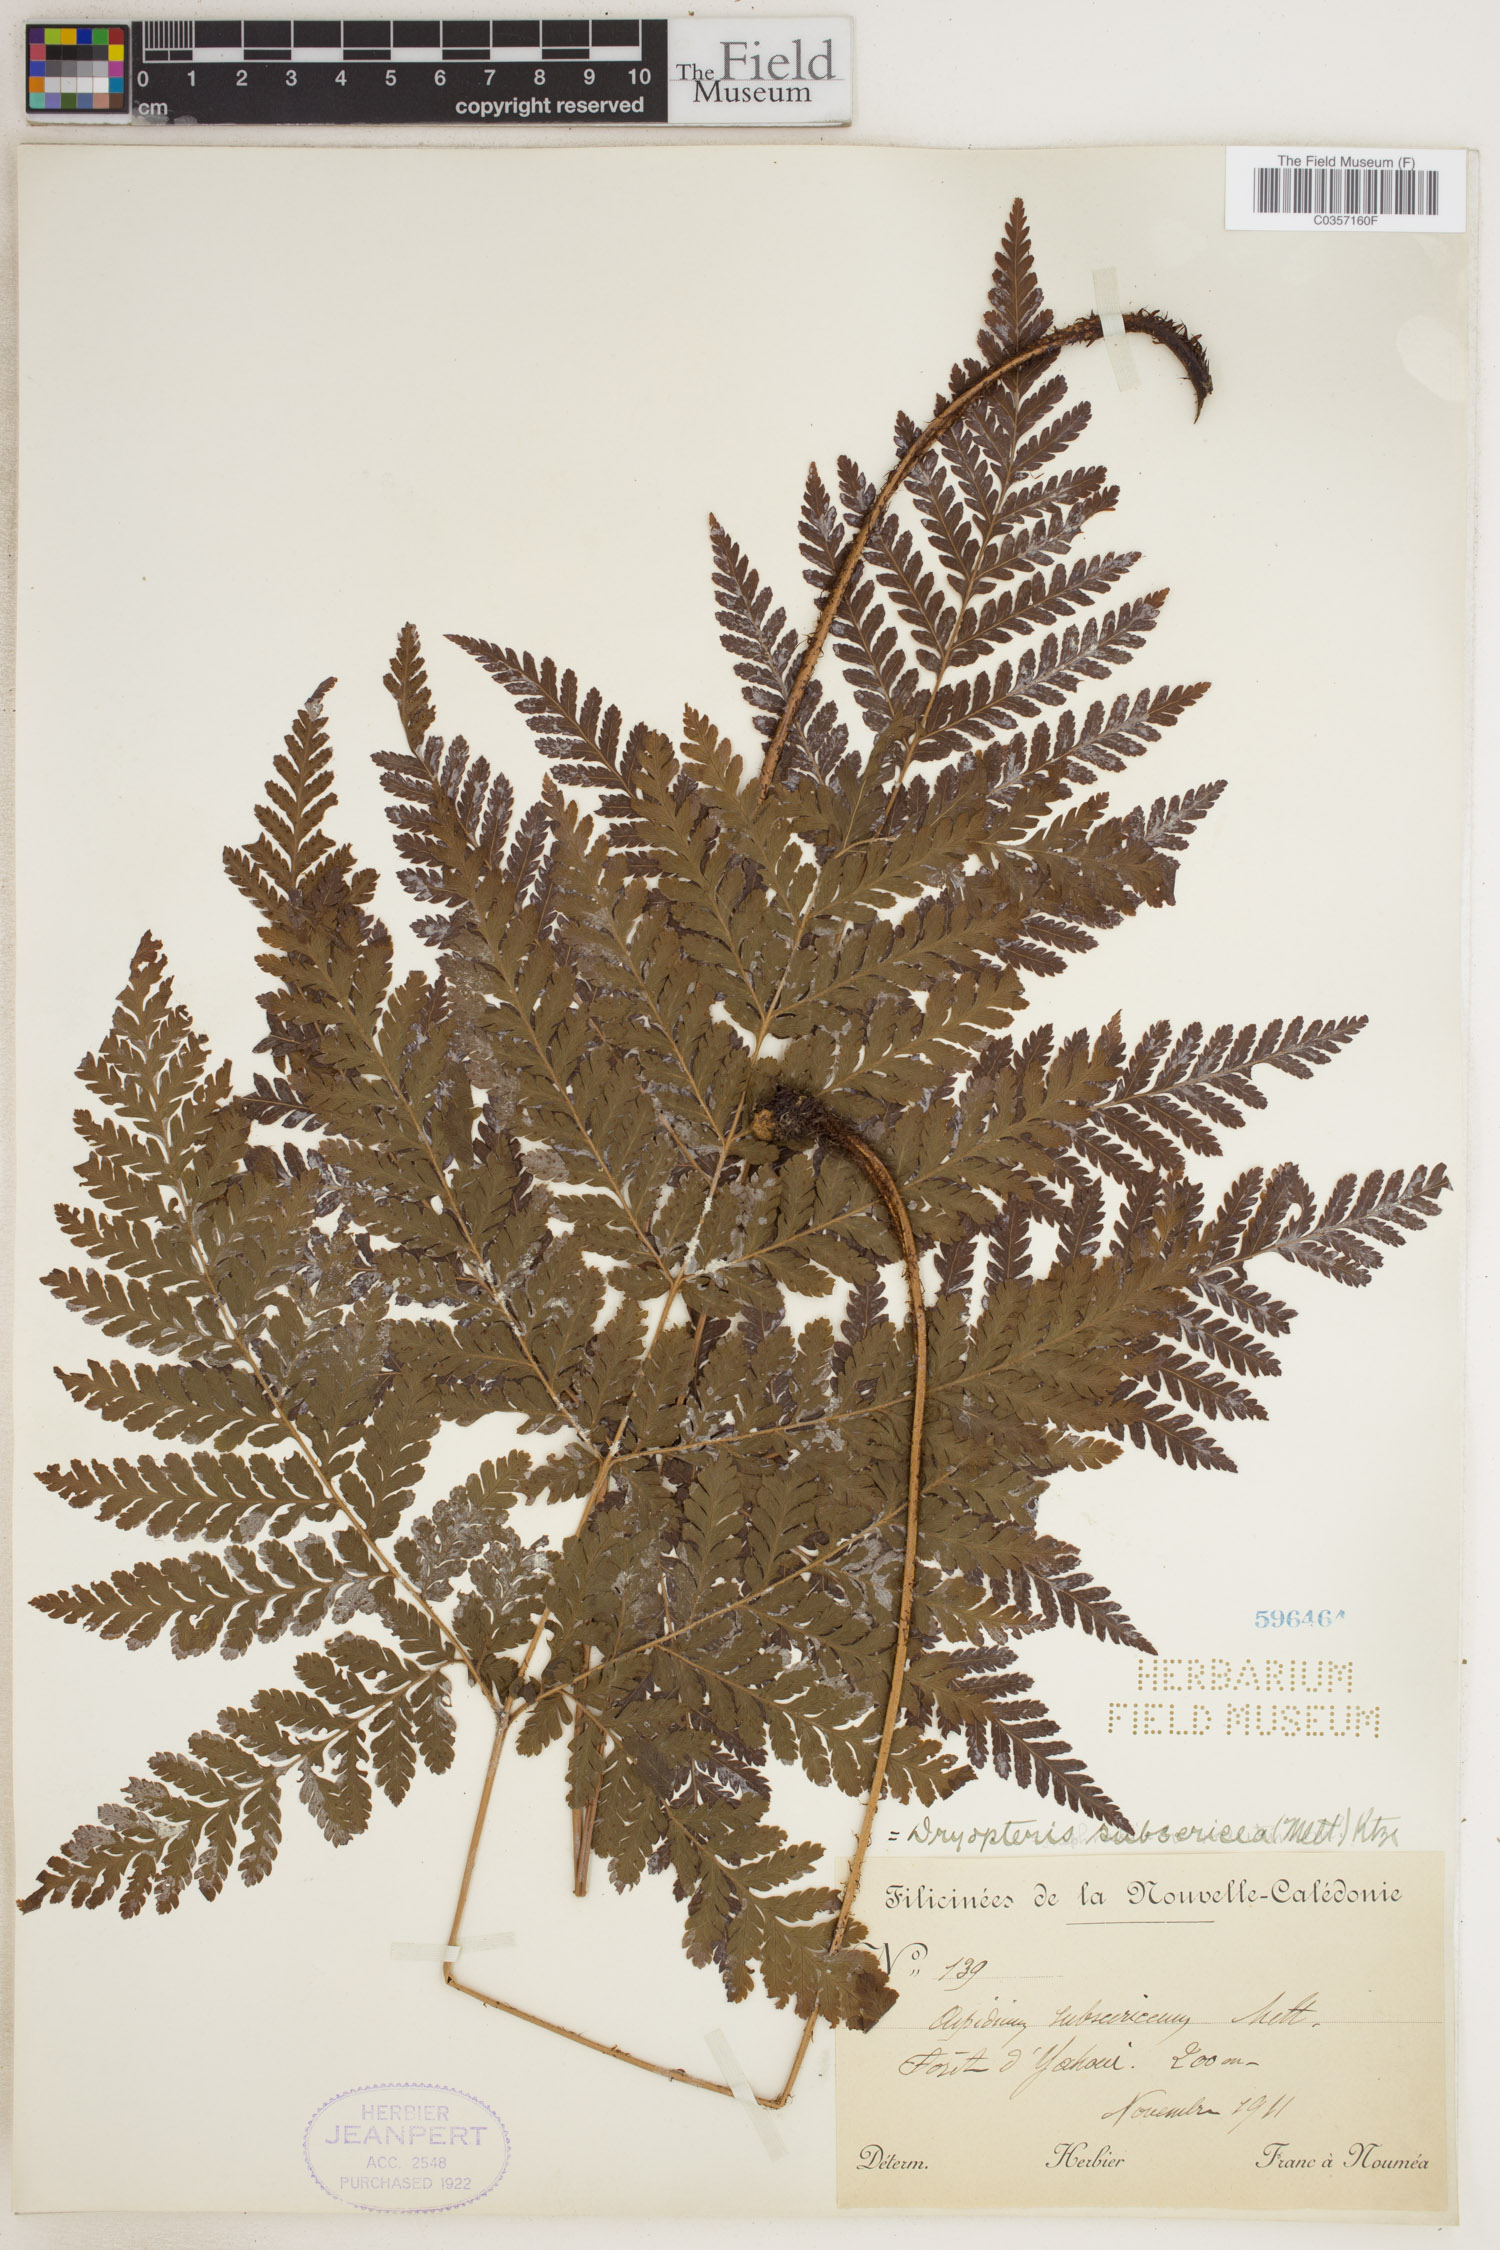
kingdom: Plantae
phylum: Tracheophyta
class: Polypodiopsida
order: Polypodiales
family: Dryopteridaceae
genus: Lastreopsis
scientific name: Lastreopsis subsericea
